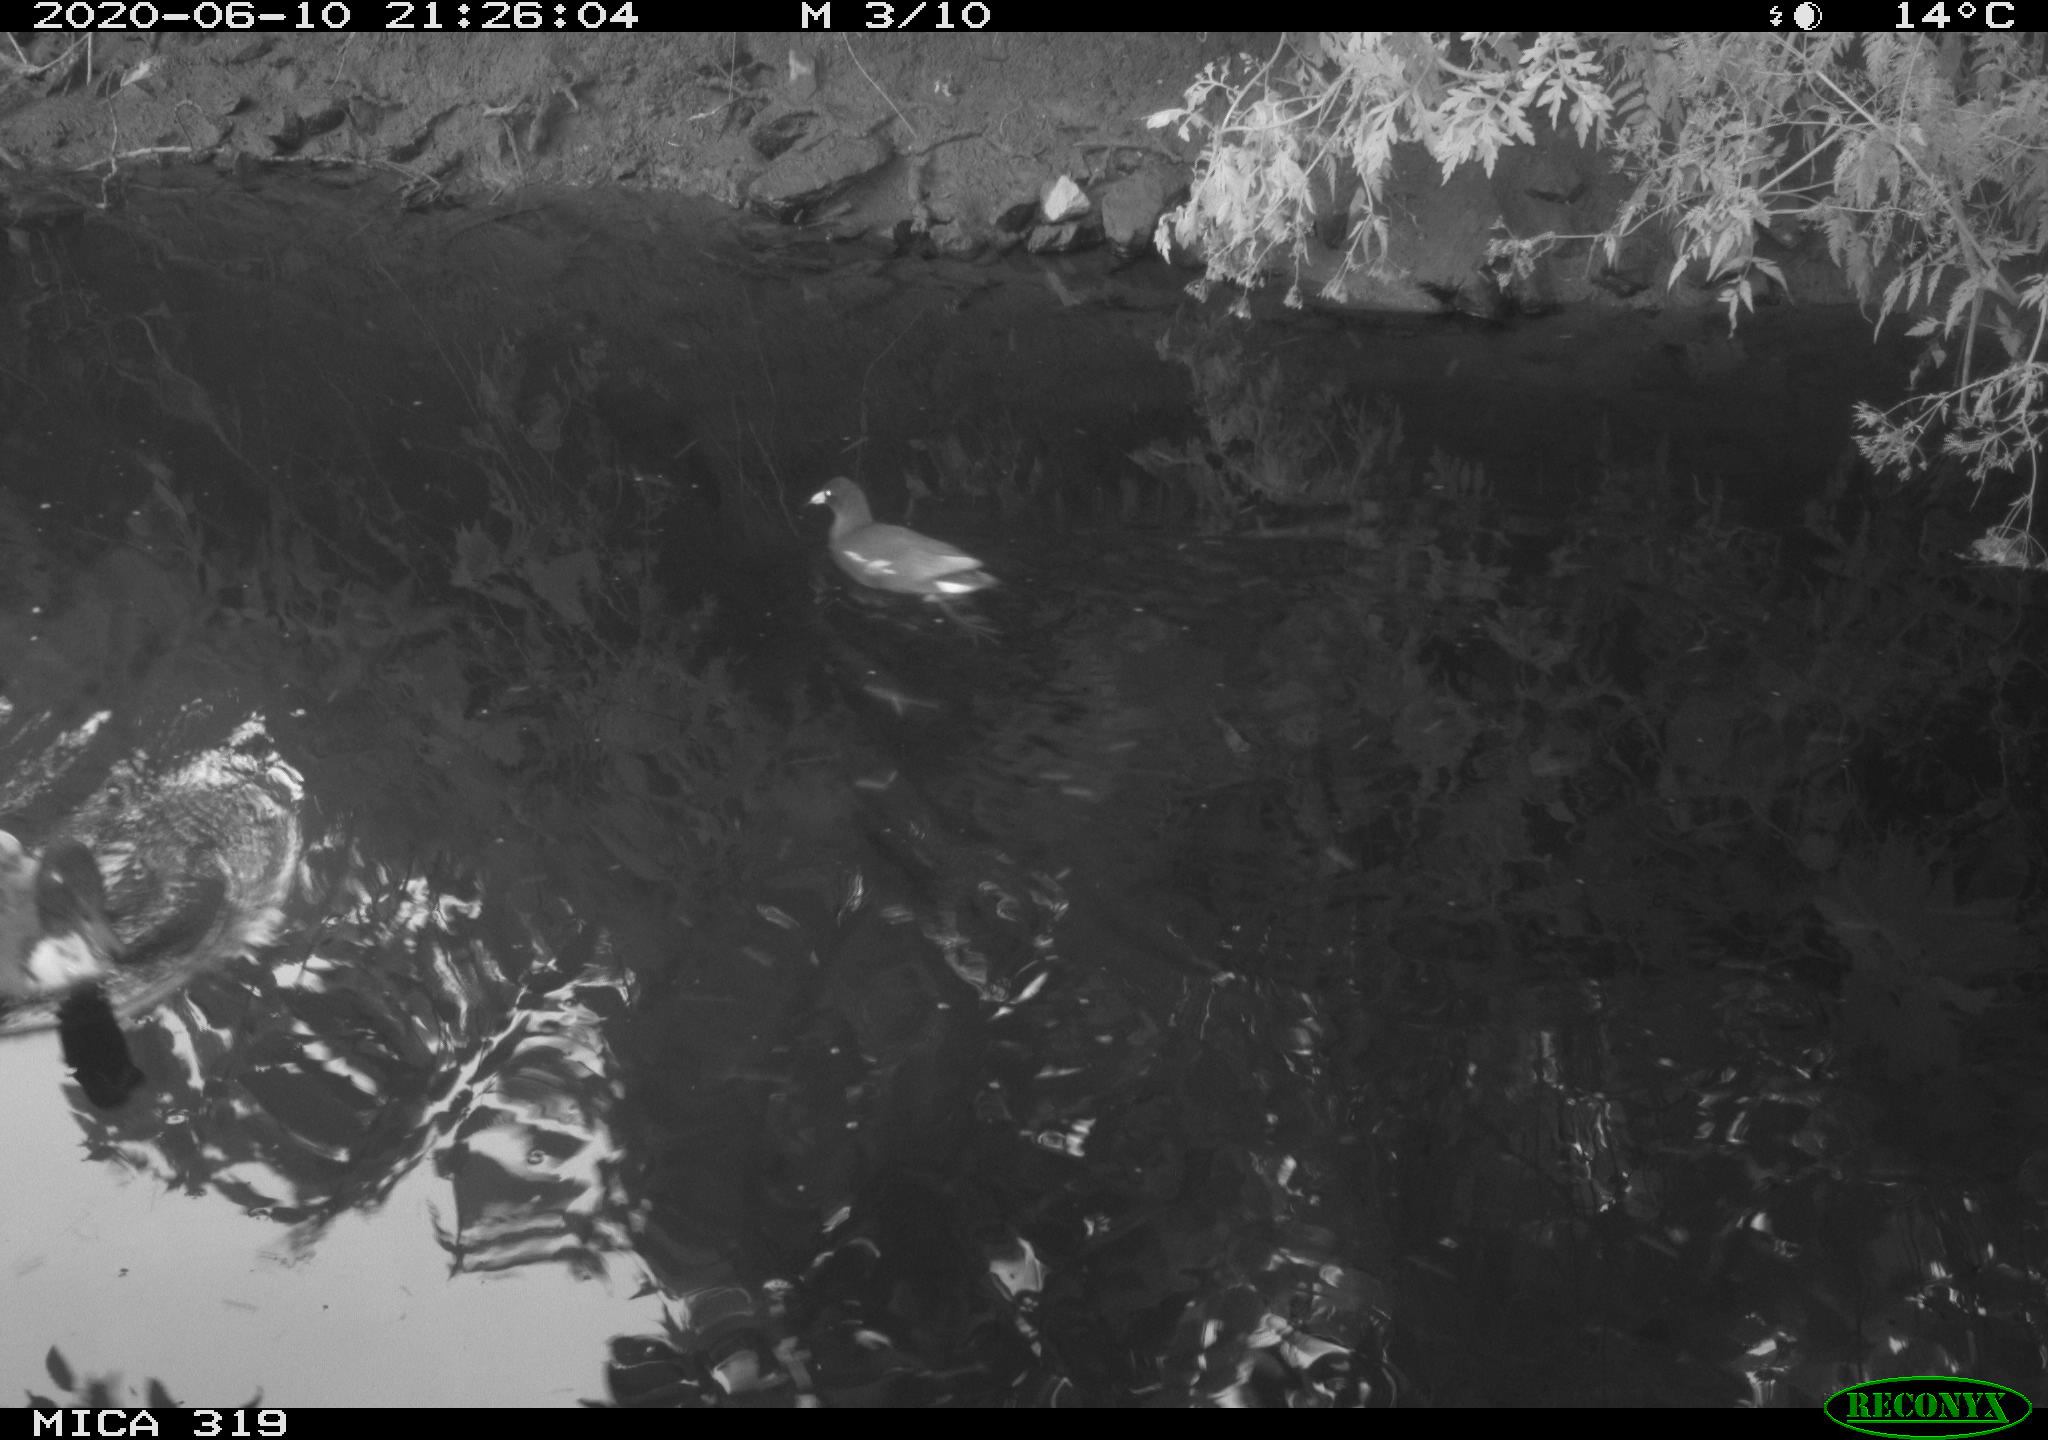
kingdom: Animalia
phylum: Chordata
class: Aves
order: Gruiformes
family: Rallidae
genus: Gallinula
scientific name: Gallinula chloropus
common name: Common moorhen
